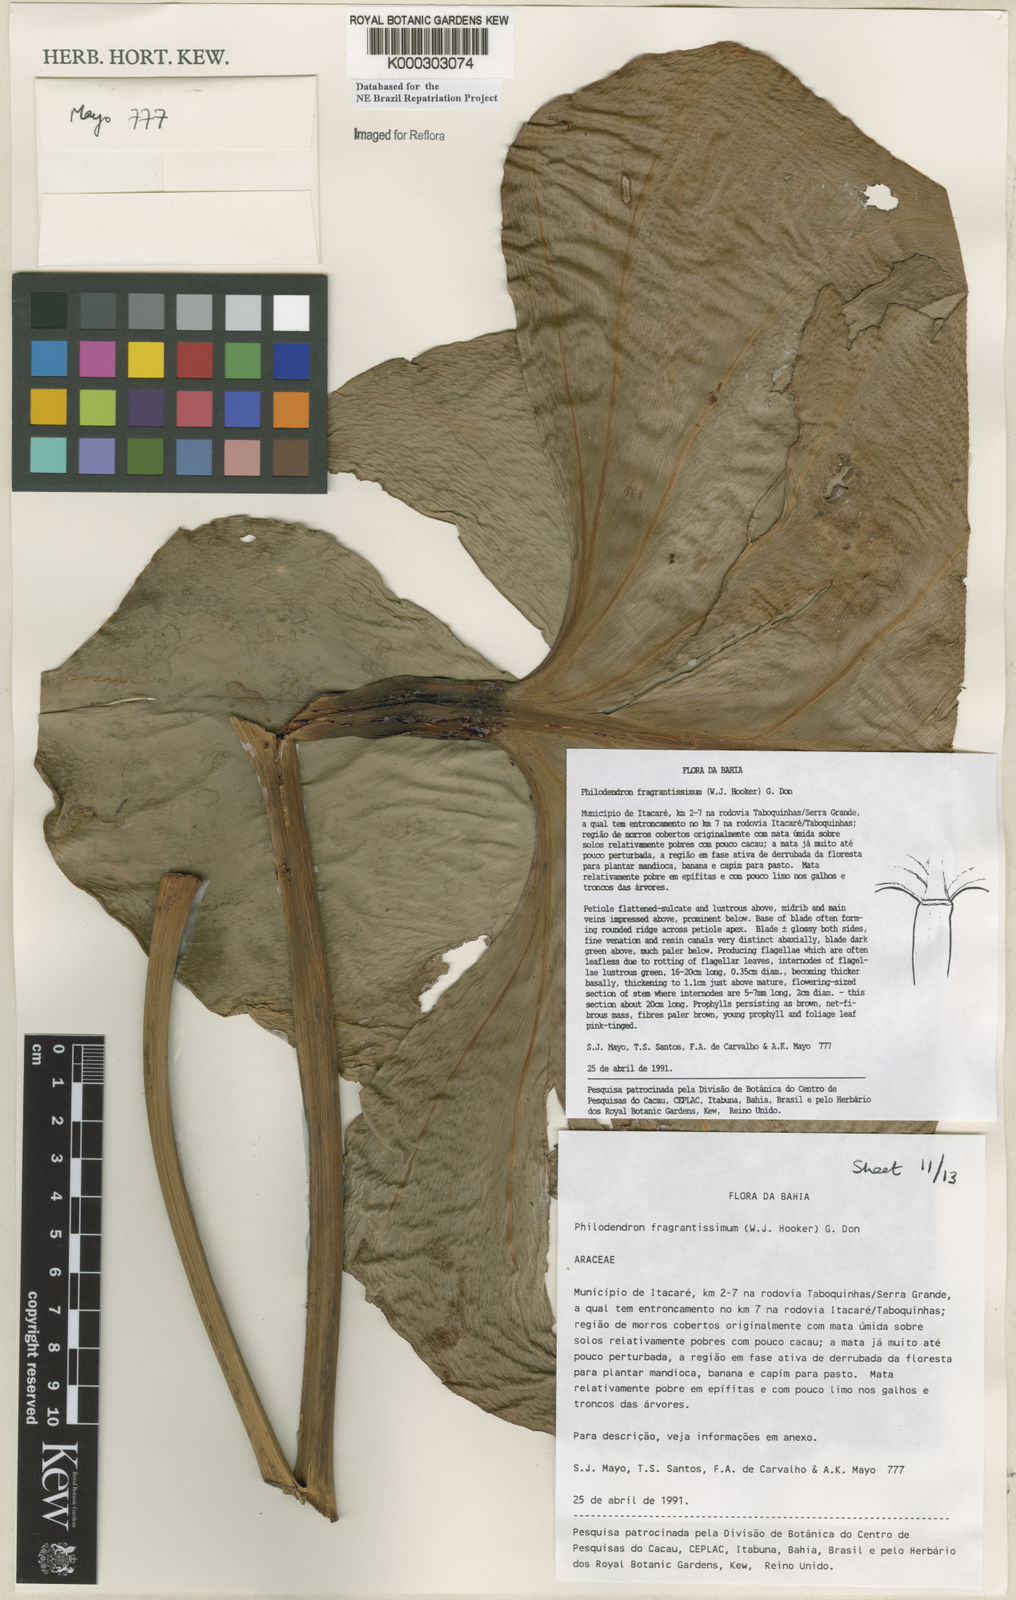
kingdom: Plantae
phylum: Tracheophyta
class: Liliopsida
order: Alismatales
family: Araceae
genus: Philodendron
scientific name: Philodendron fragrantissimum
